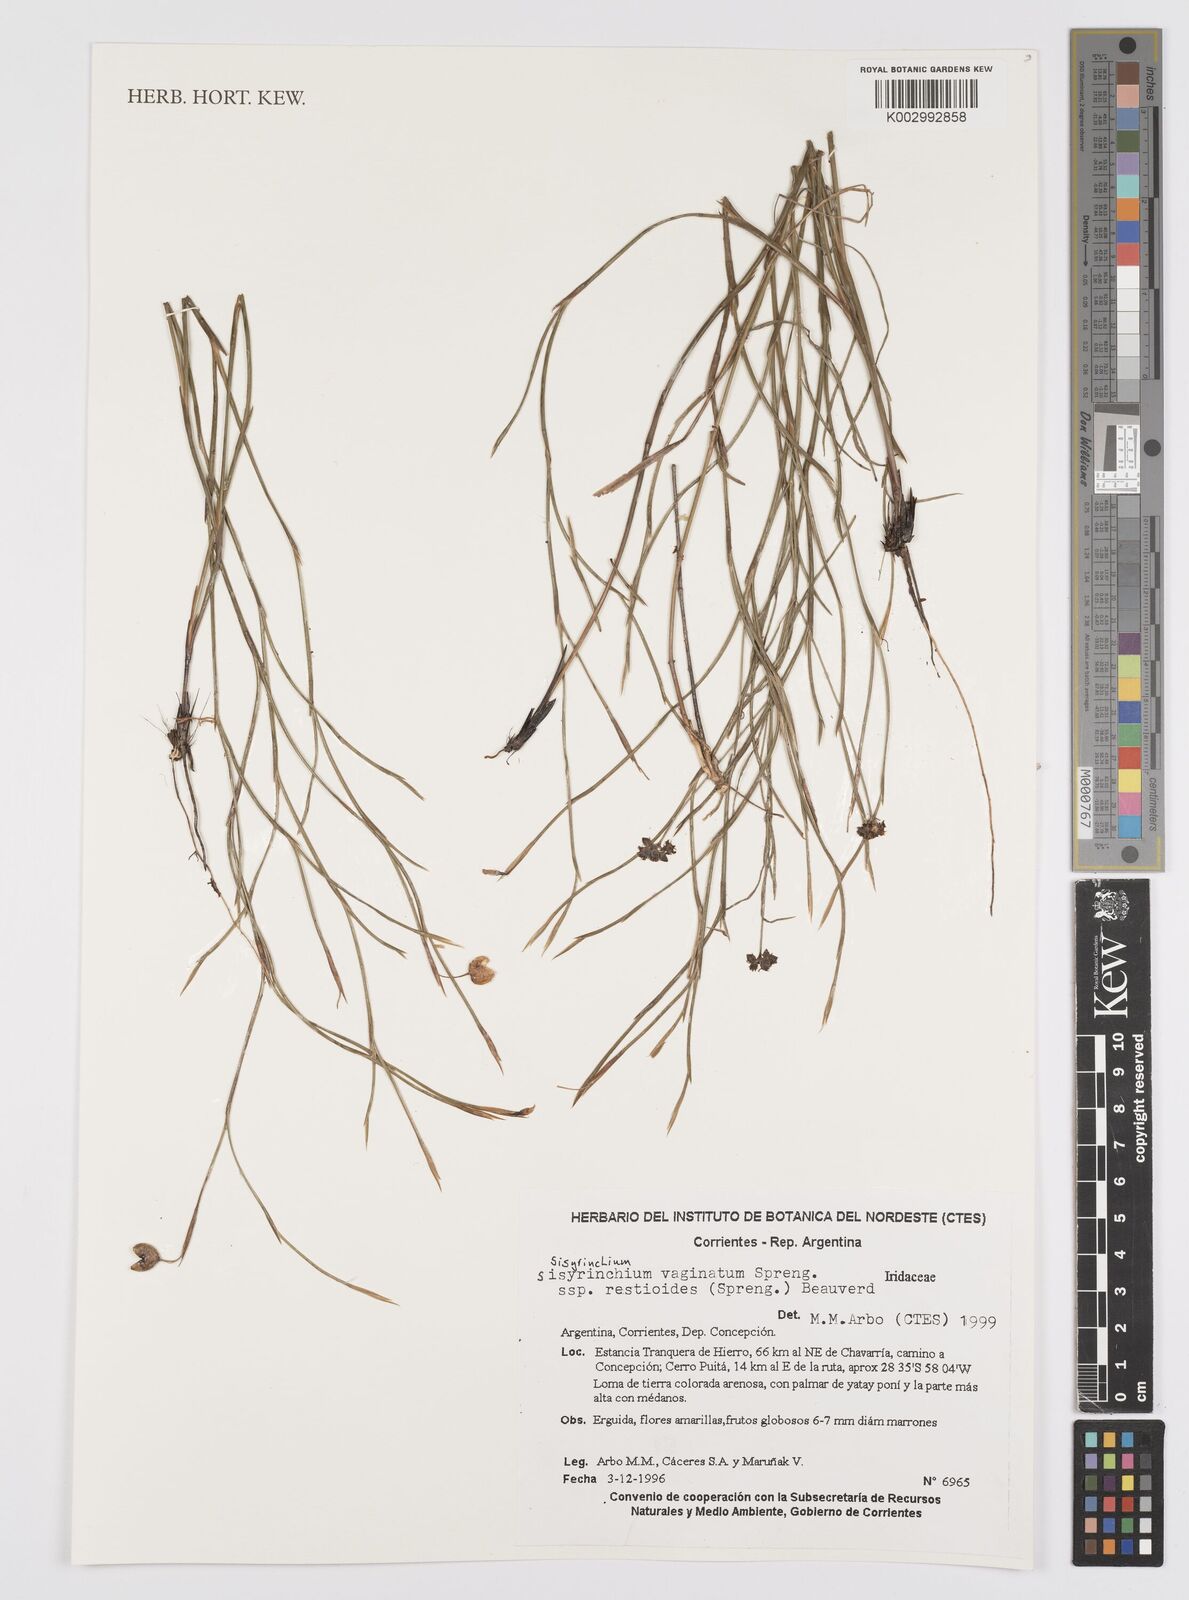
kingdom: Plantae
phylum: Tracheophyta
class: Liliopsida
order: Asparagales
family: Iridaceae
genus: Sisyrinchium
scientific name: Sisyrinchium vaginatum
